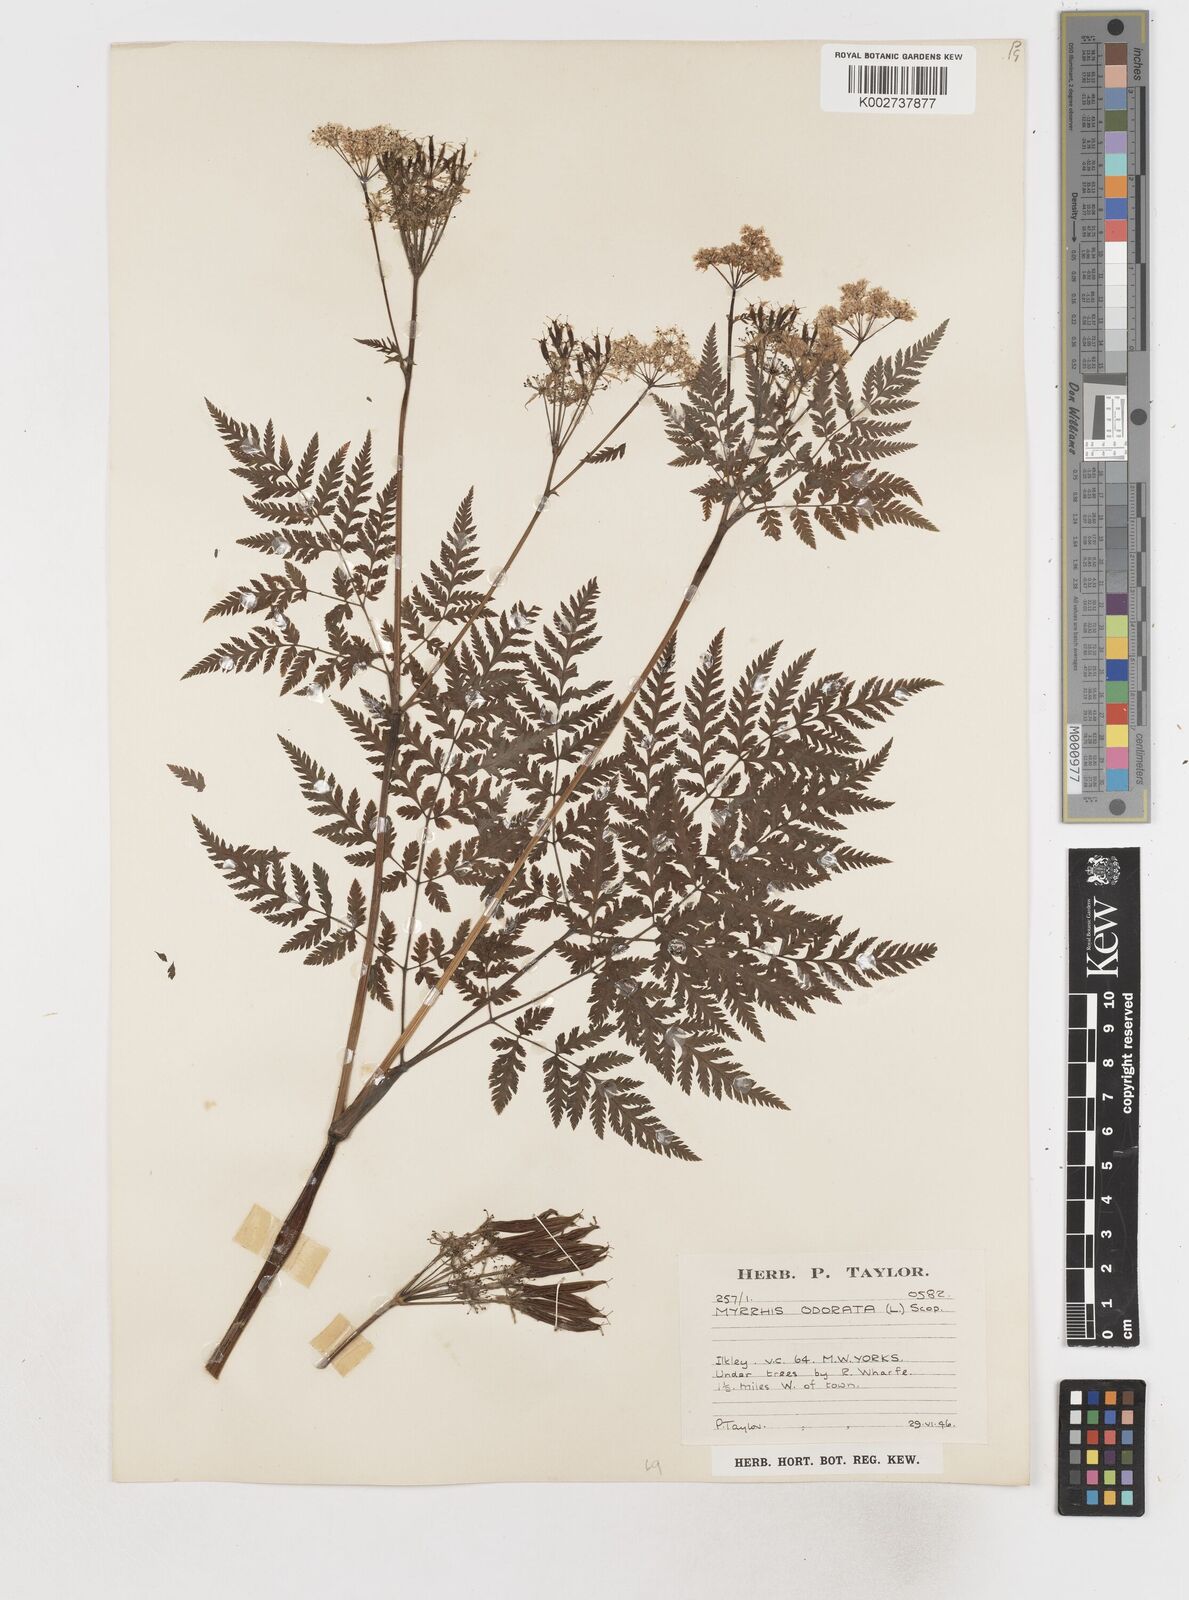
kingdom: Plantae
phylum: Tracheophyta
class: Magnoliopsida
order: Apiales
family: Apiaceae
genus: Myrrhis
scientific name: Myrrhis odorata
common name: Sweet cicely
